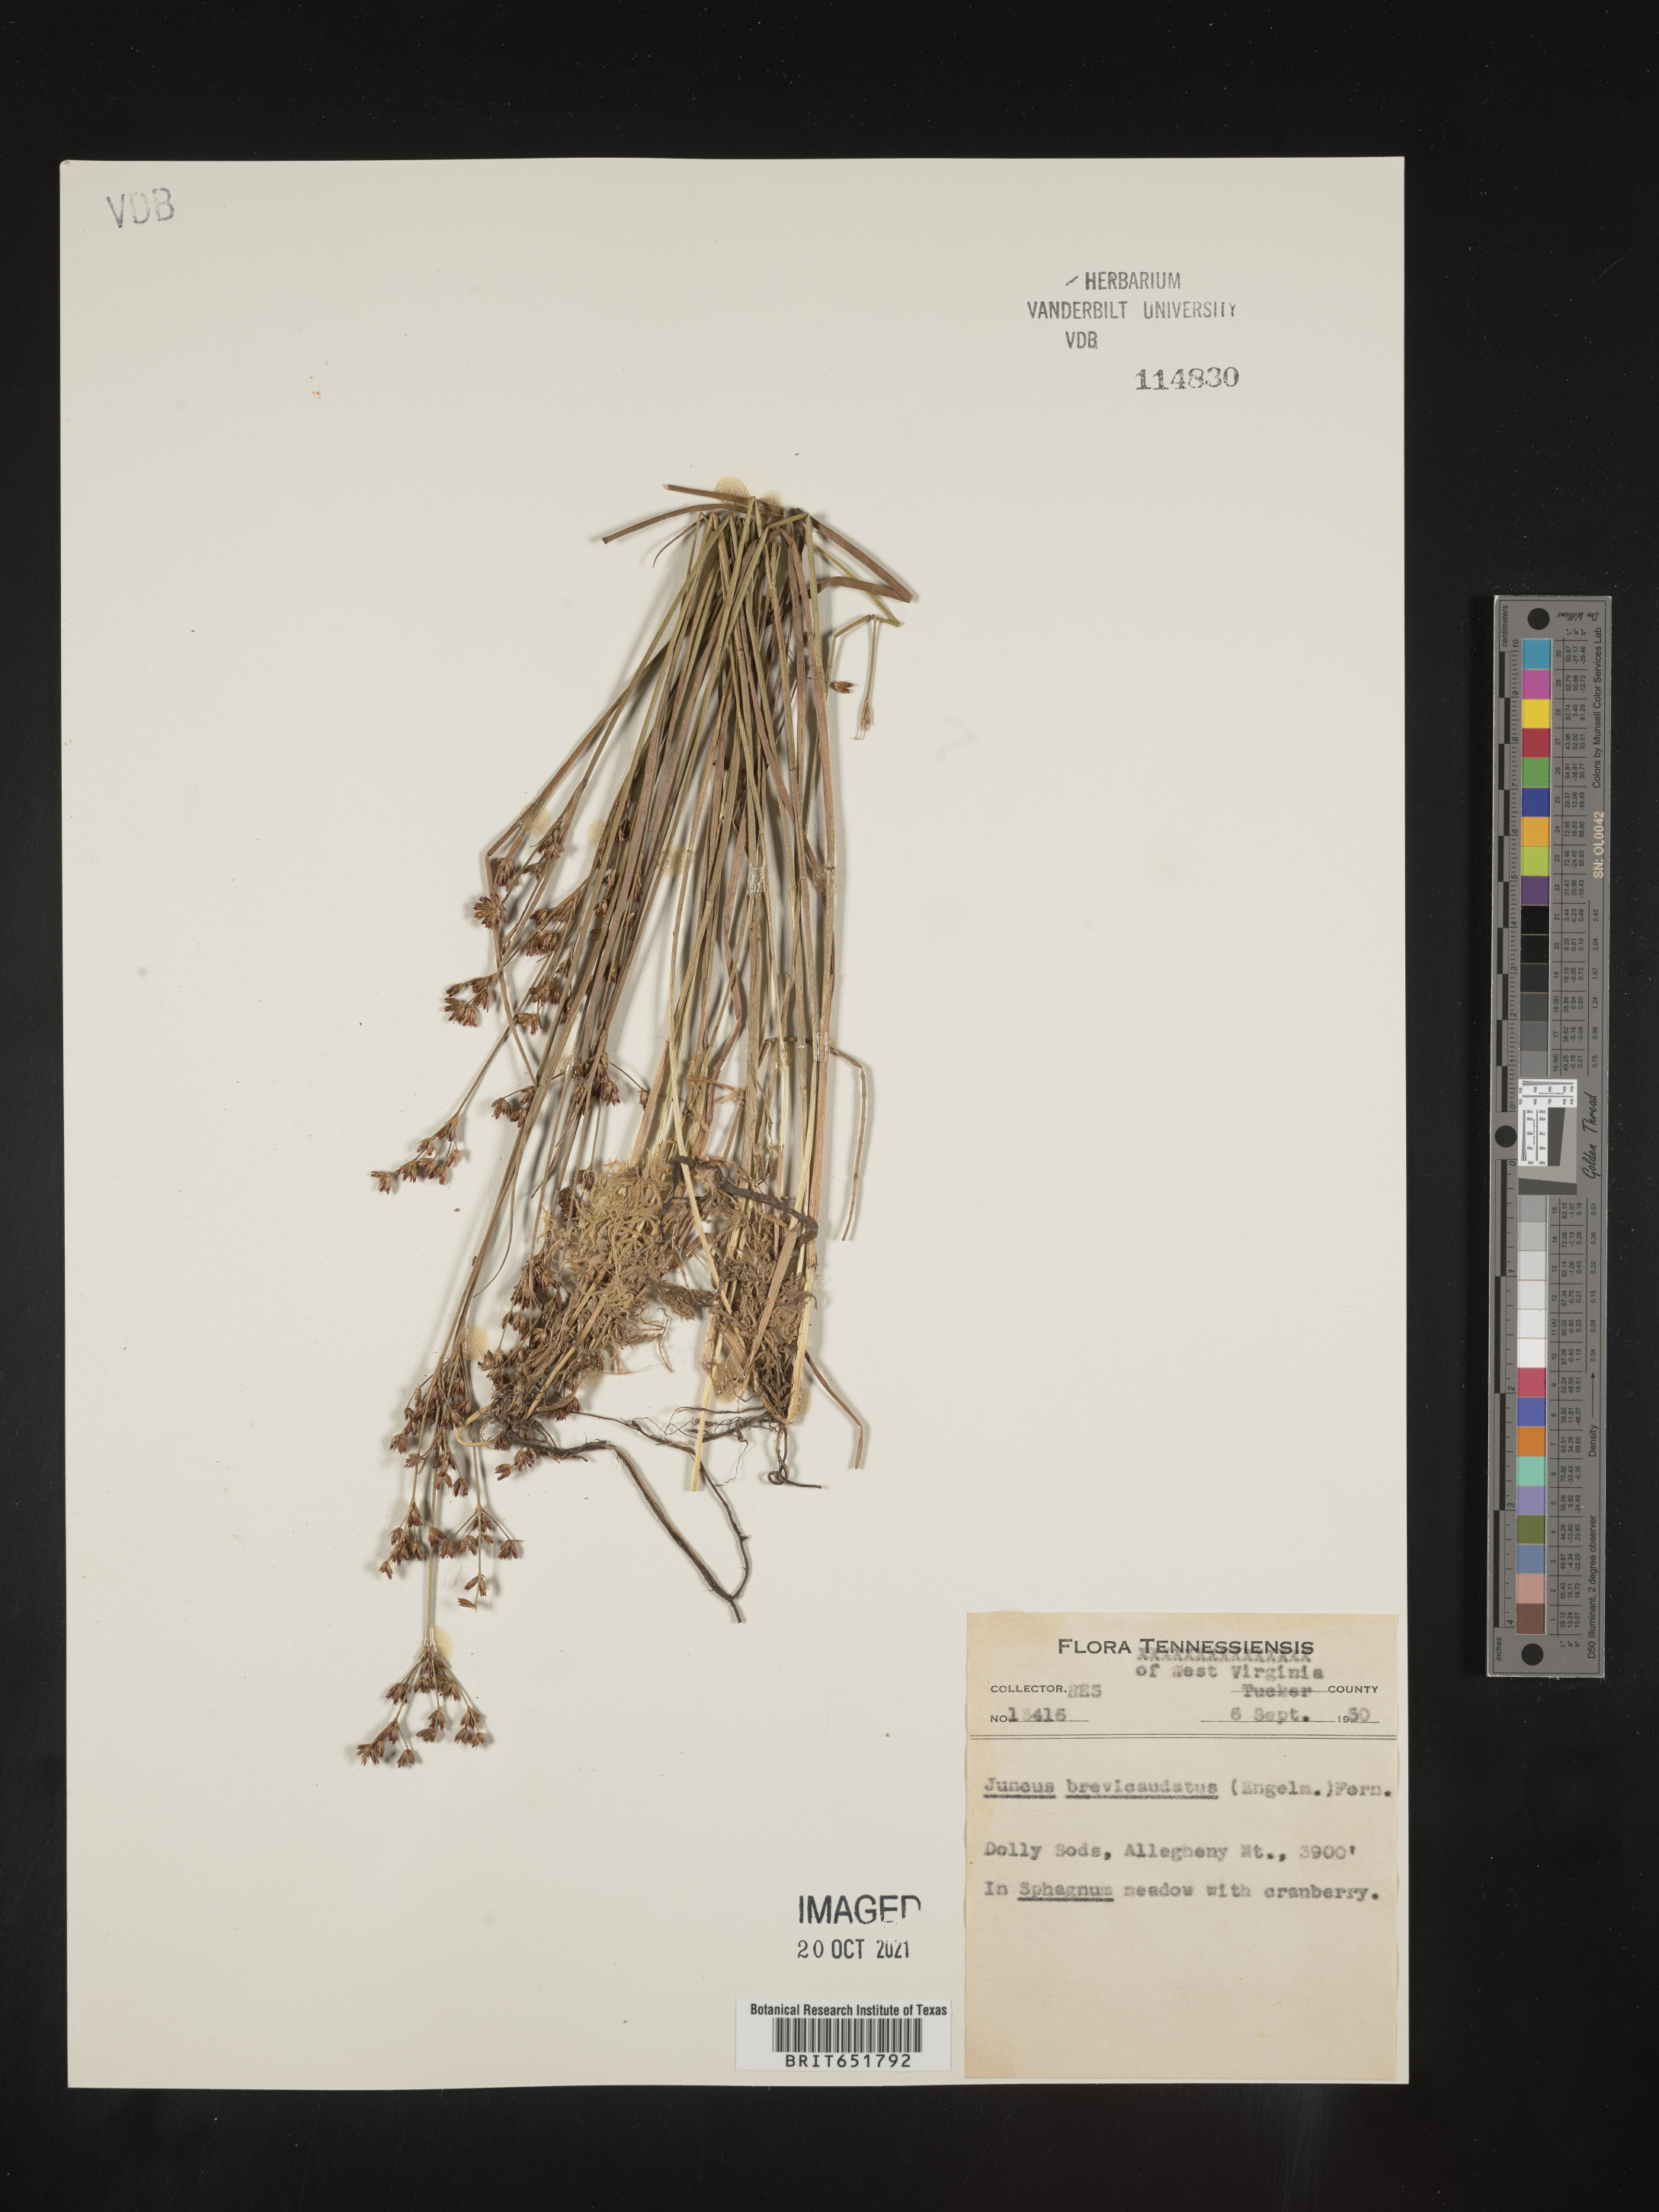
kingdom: Plantae
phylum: Tracheophyta
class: Liliopsida
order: Poales
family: Juncaceae
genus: Juncus
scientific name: Juncus brevicaudatus
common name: Narrow-panicle rush
